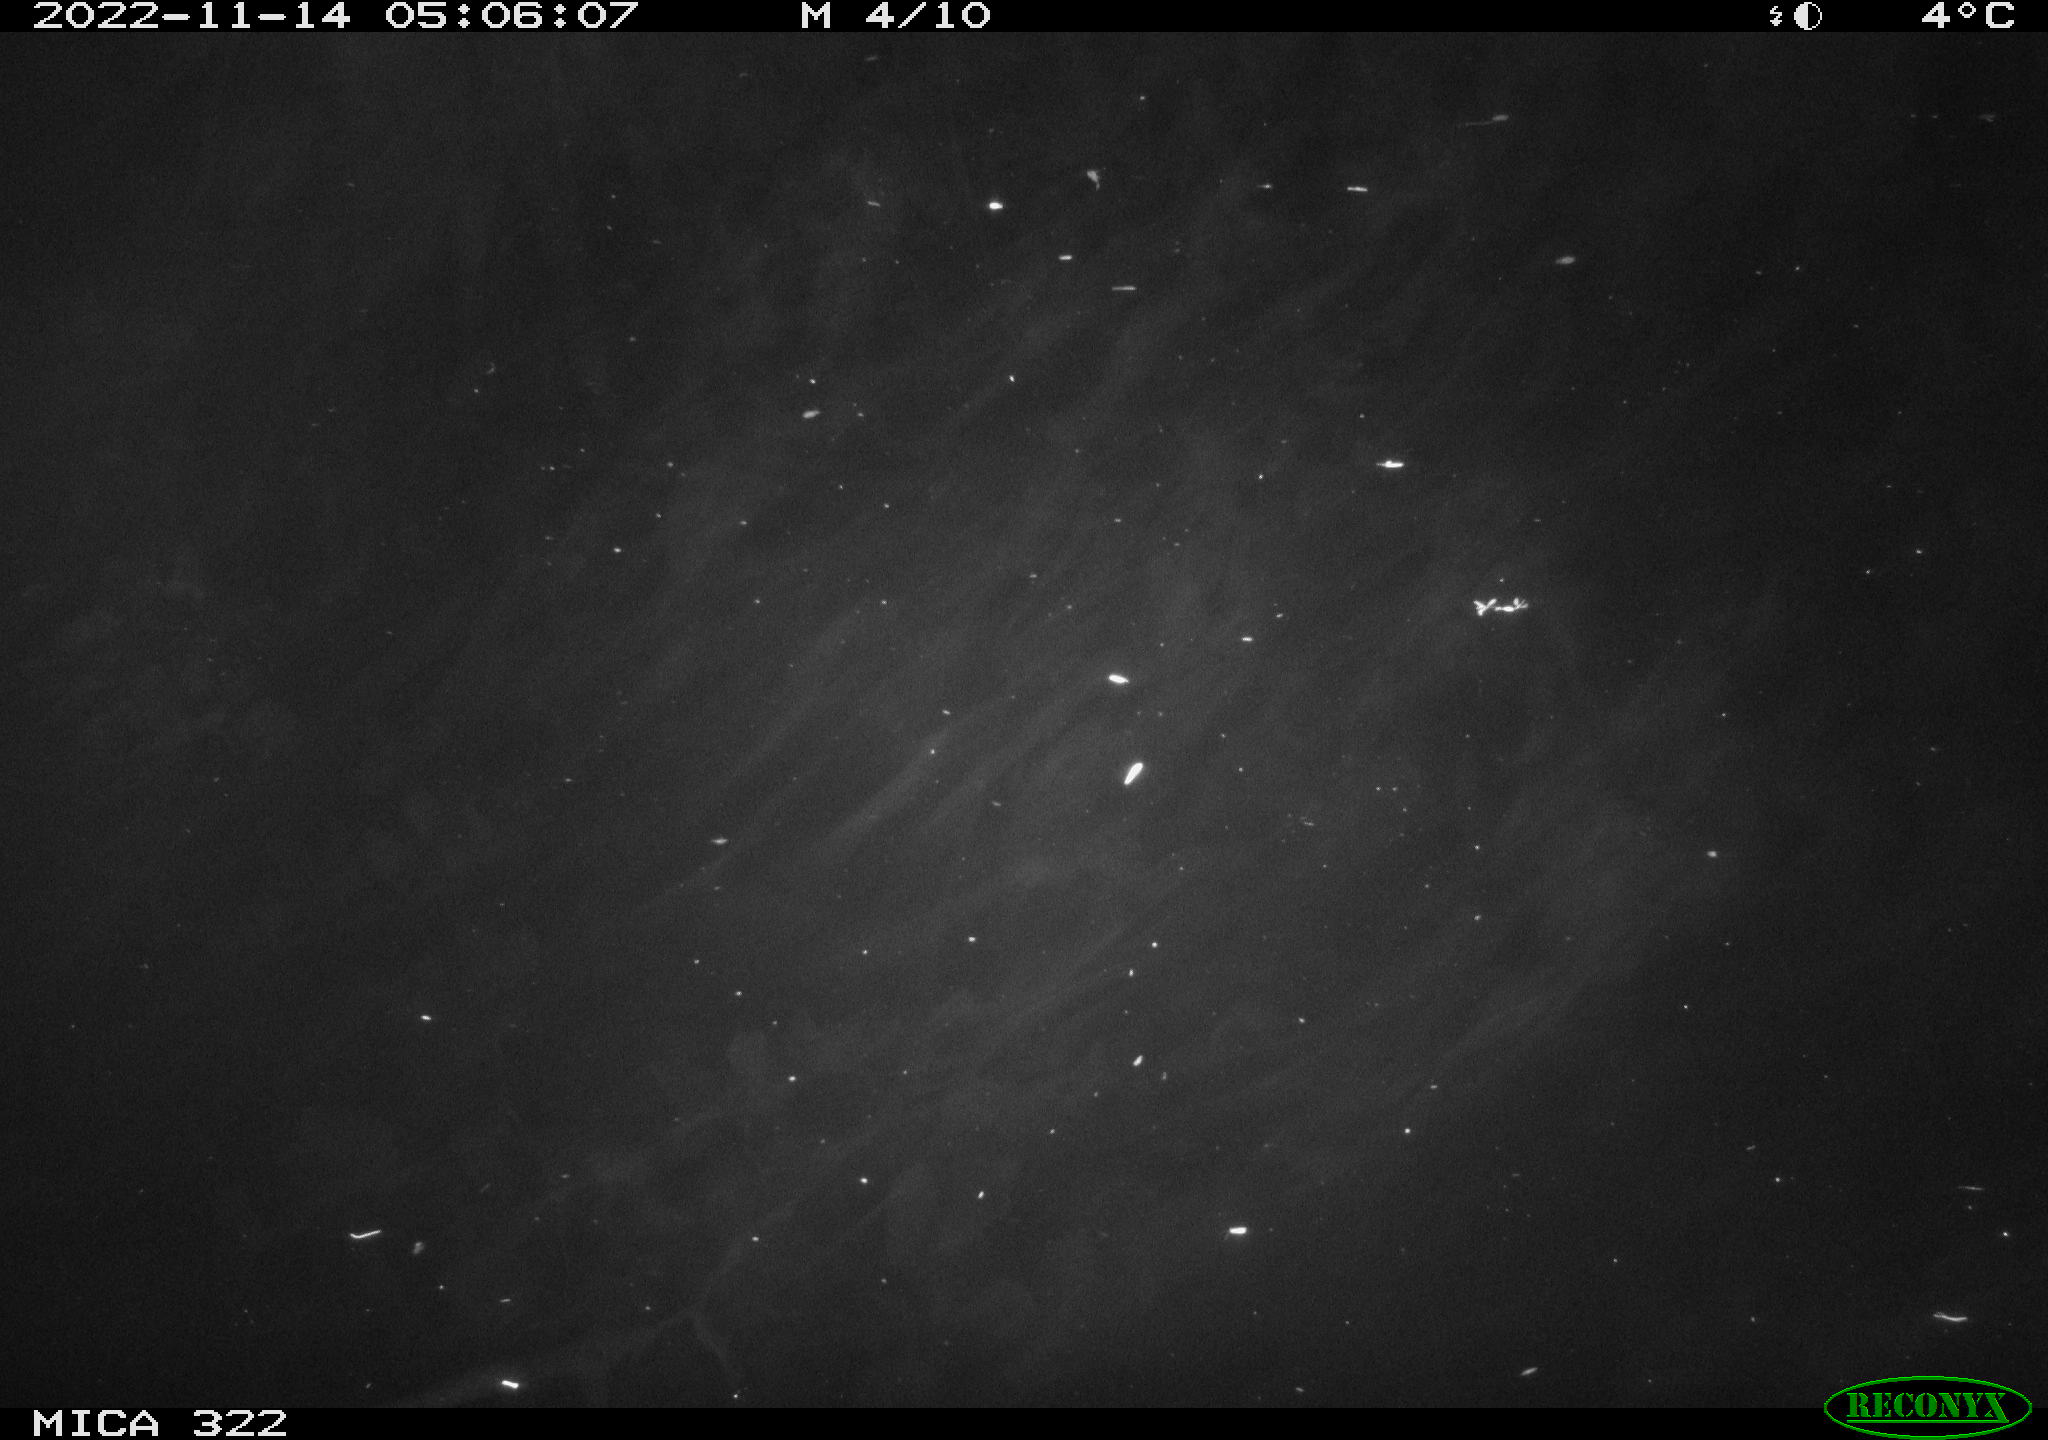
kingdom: Animalia
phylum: Chordata
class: Mammalia
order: Rodentia
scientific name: Rodentia
